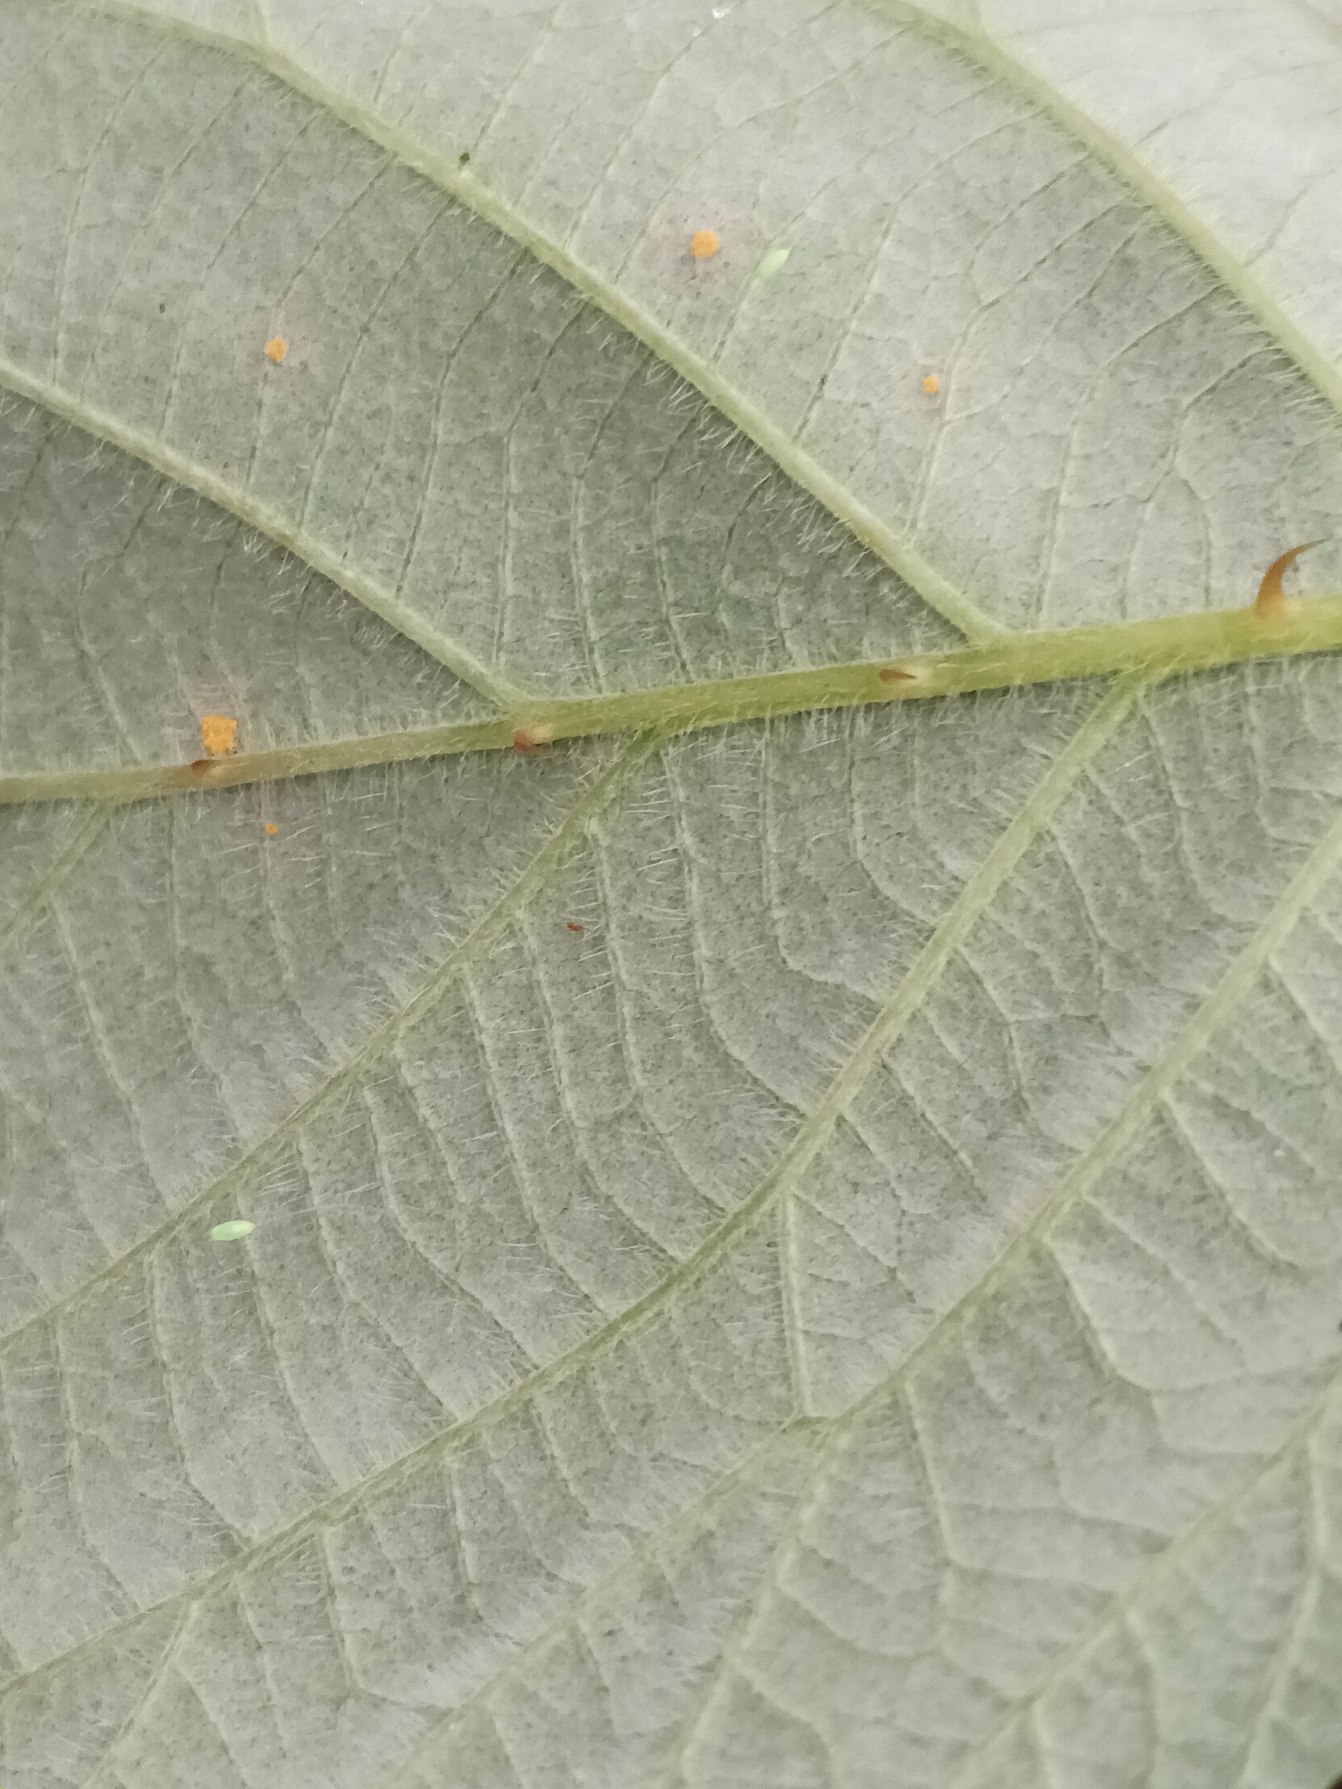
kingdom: Plantae
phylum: Tracheophyta
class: Magnoliopsida
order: Rosales
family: Rosaceae
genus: Rubus
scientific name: Rubus vestitus
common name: Rundbladet brombær
